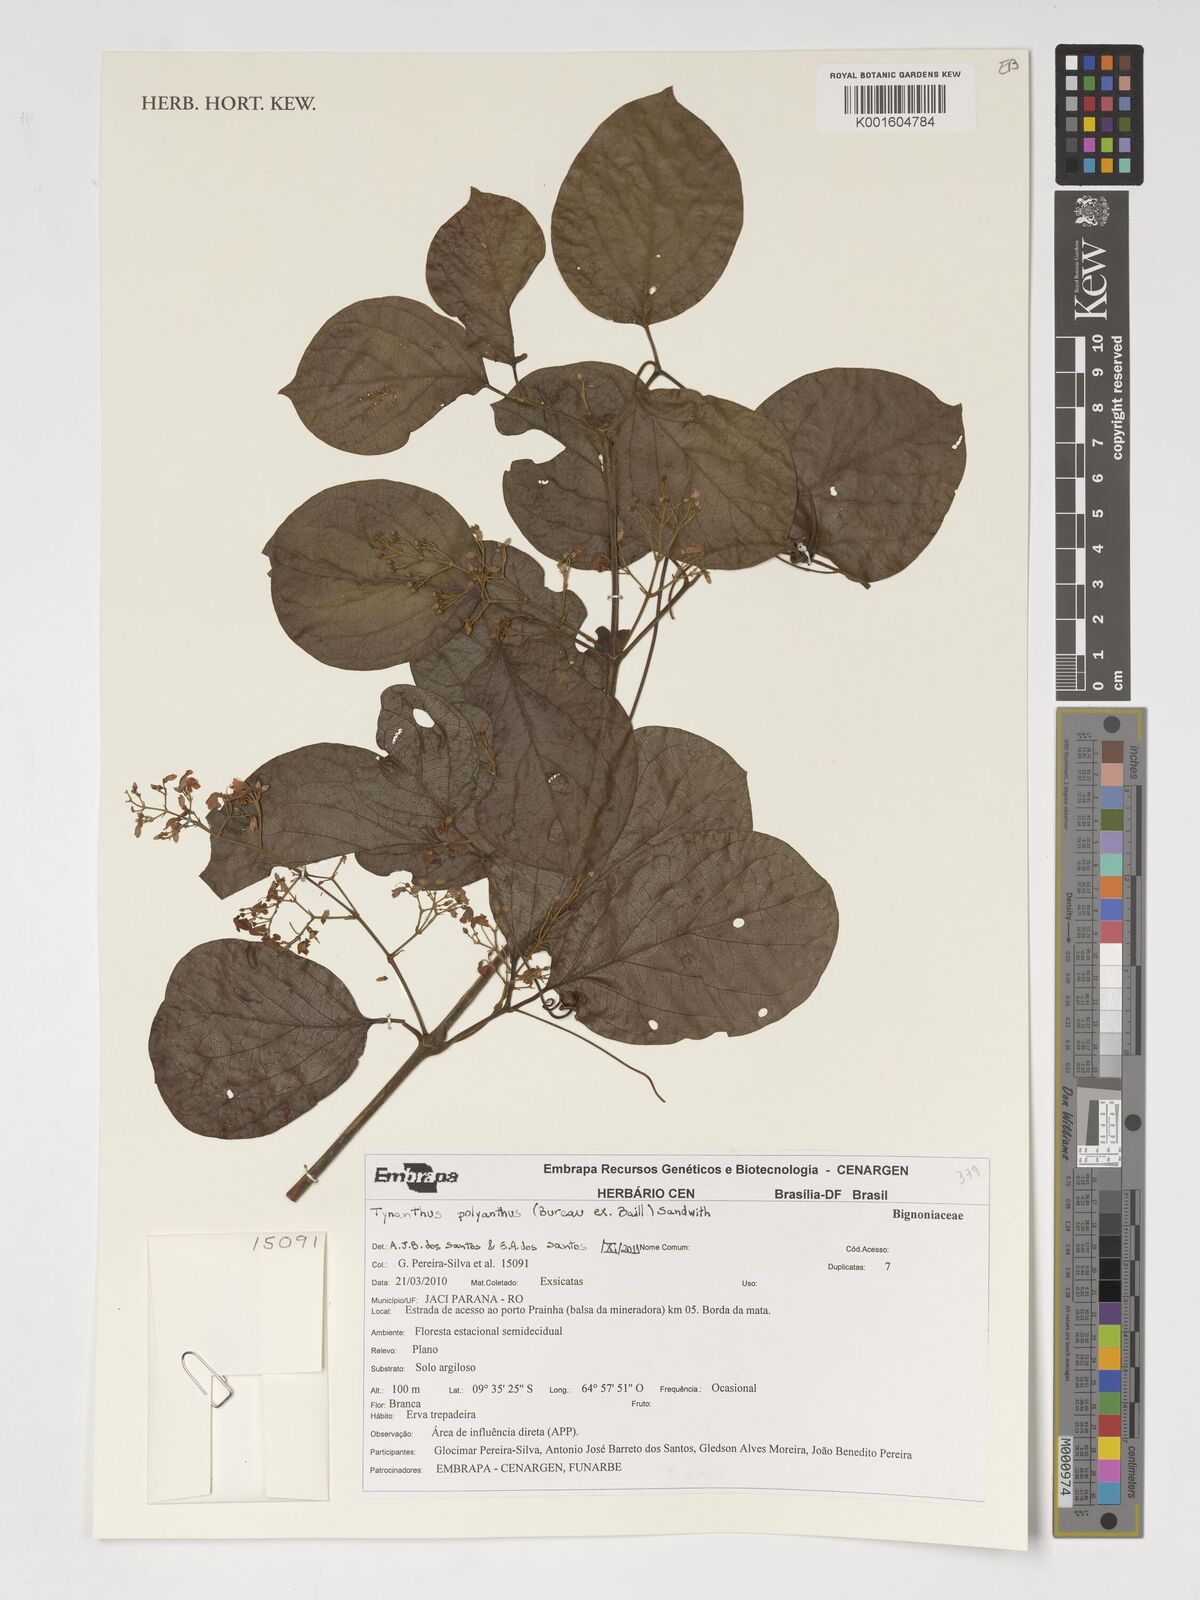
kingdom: Plantae
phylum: Tracheophyta
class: Magnoliopsida
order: Lamiales
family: Bignoniaceae
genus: Tynanthus
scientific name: Tynanthus polyanthus
